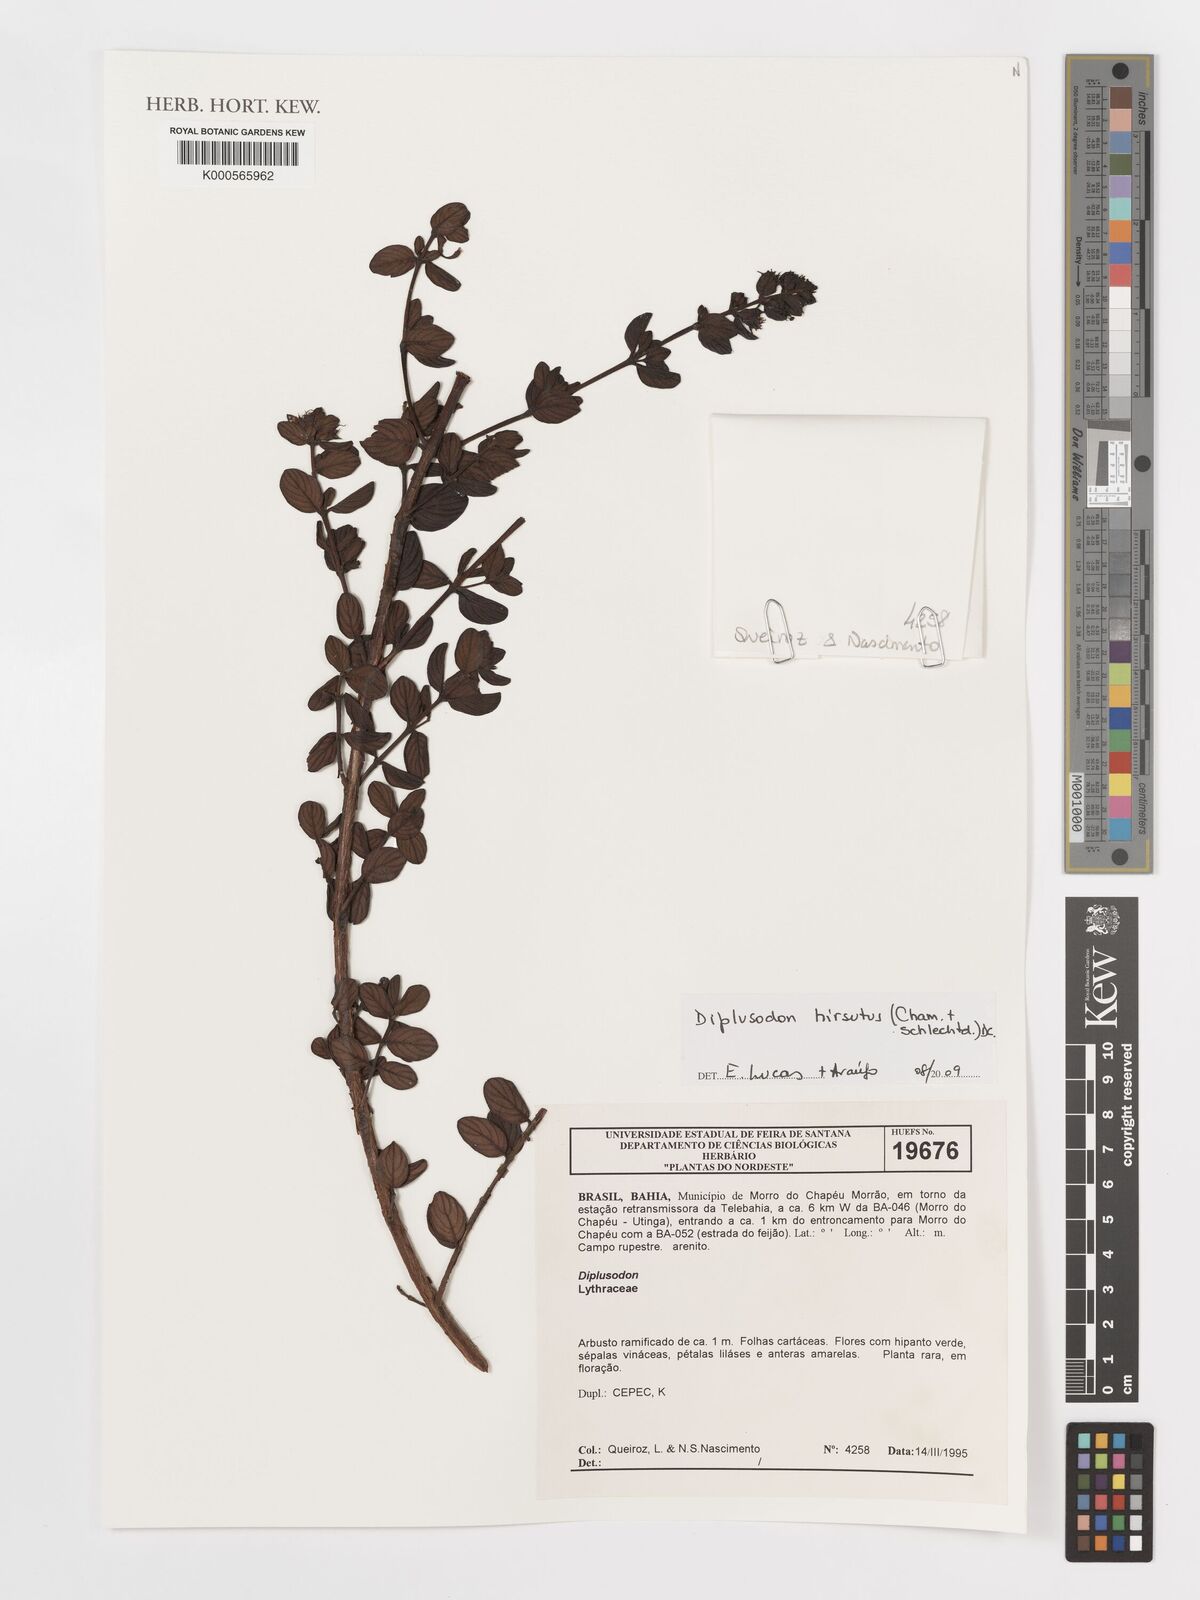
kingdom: Plantae
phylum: Tracheophyta
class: Magnoliopsida
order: Myrtales
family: Lythraceae
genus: Diplusodon
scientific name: Diplusodon hirsutus
